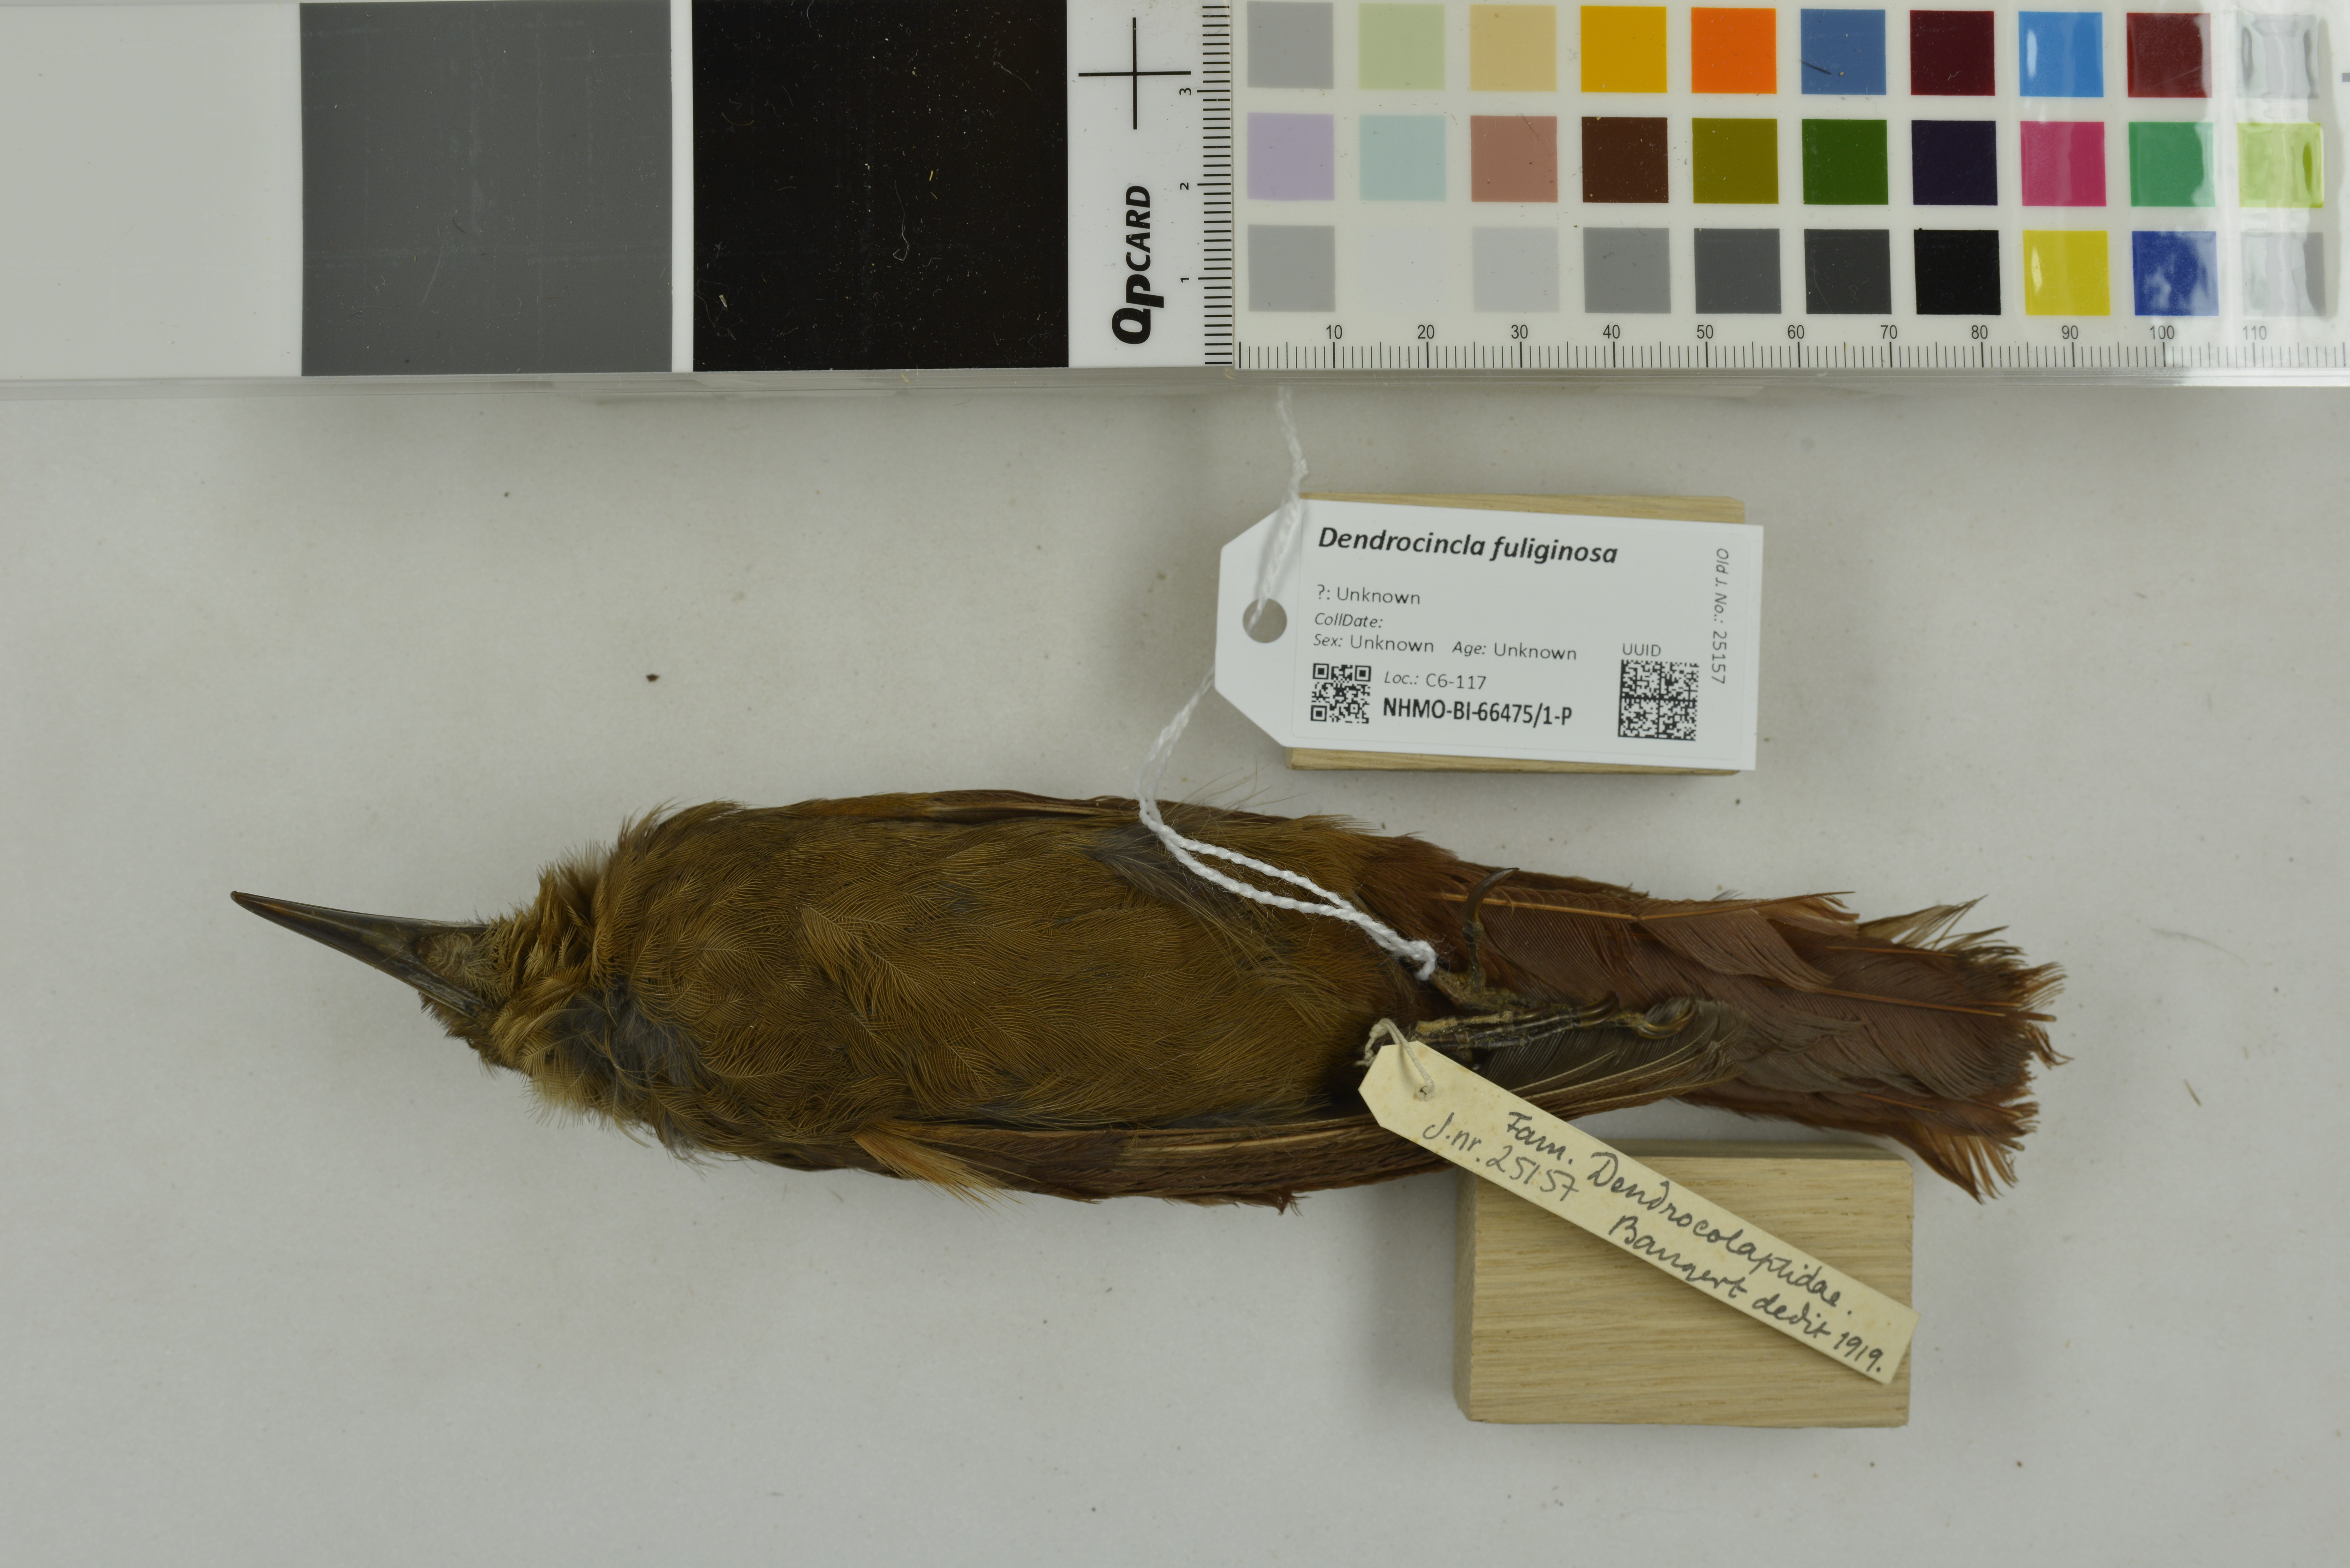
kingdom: Animalia
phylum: Chordata
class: Aves
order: Passeriformes
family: Furnariidae
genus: Dendrocincla
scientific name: Dendrocincla fuliginosa
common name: Plain-brown woodcreeper
